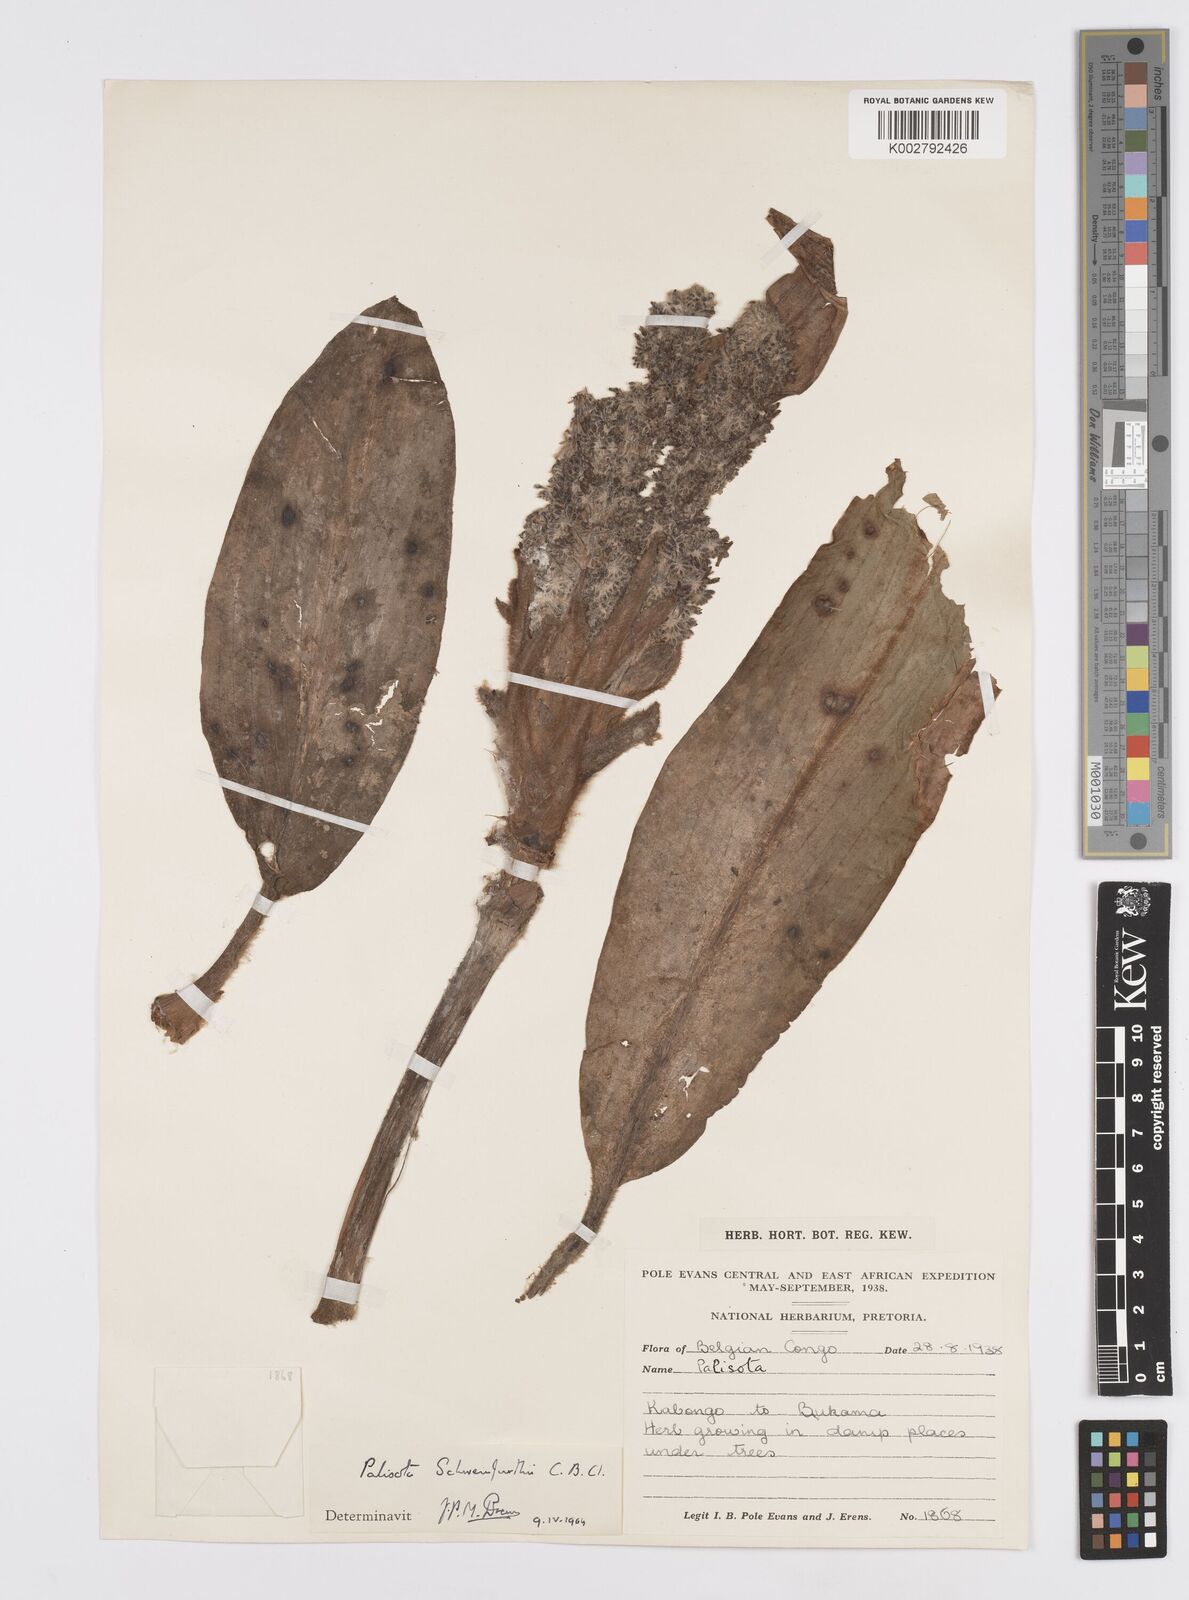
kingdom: Plantae
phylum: Tracheophyta
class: Liliopsida
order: Commelinales
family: Commelinaceae
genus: Palisota
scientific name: Palisota schweinfurthii
